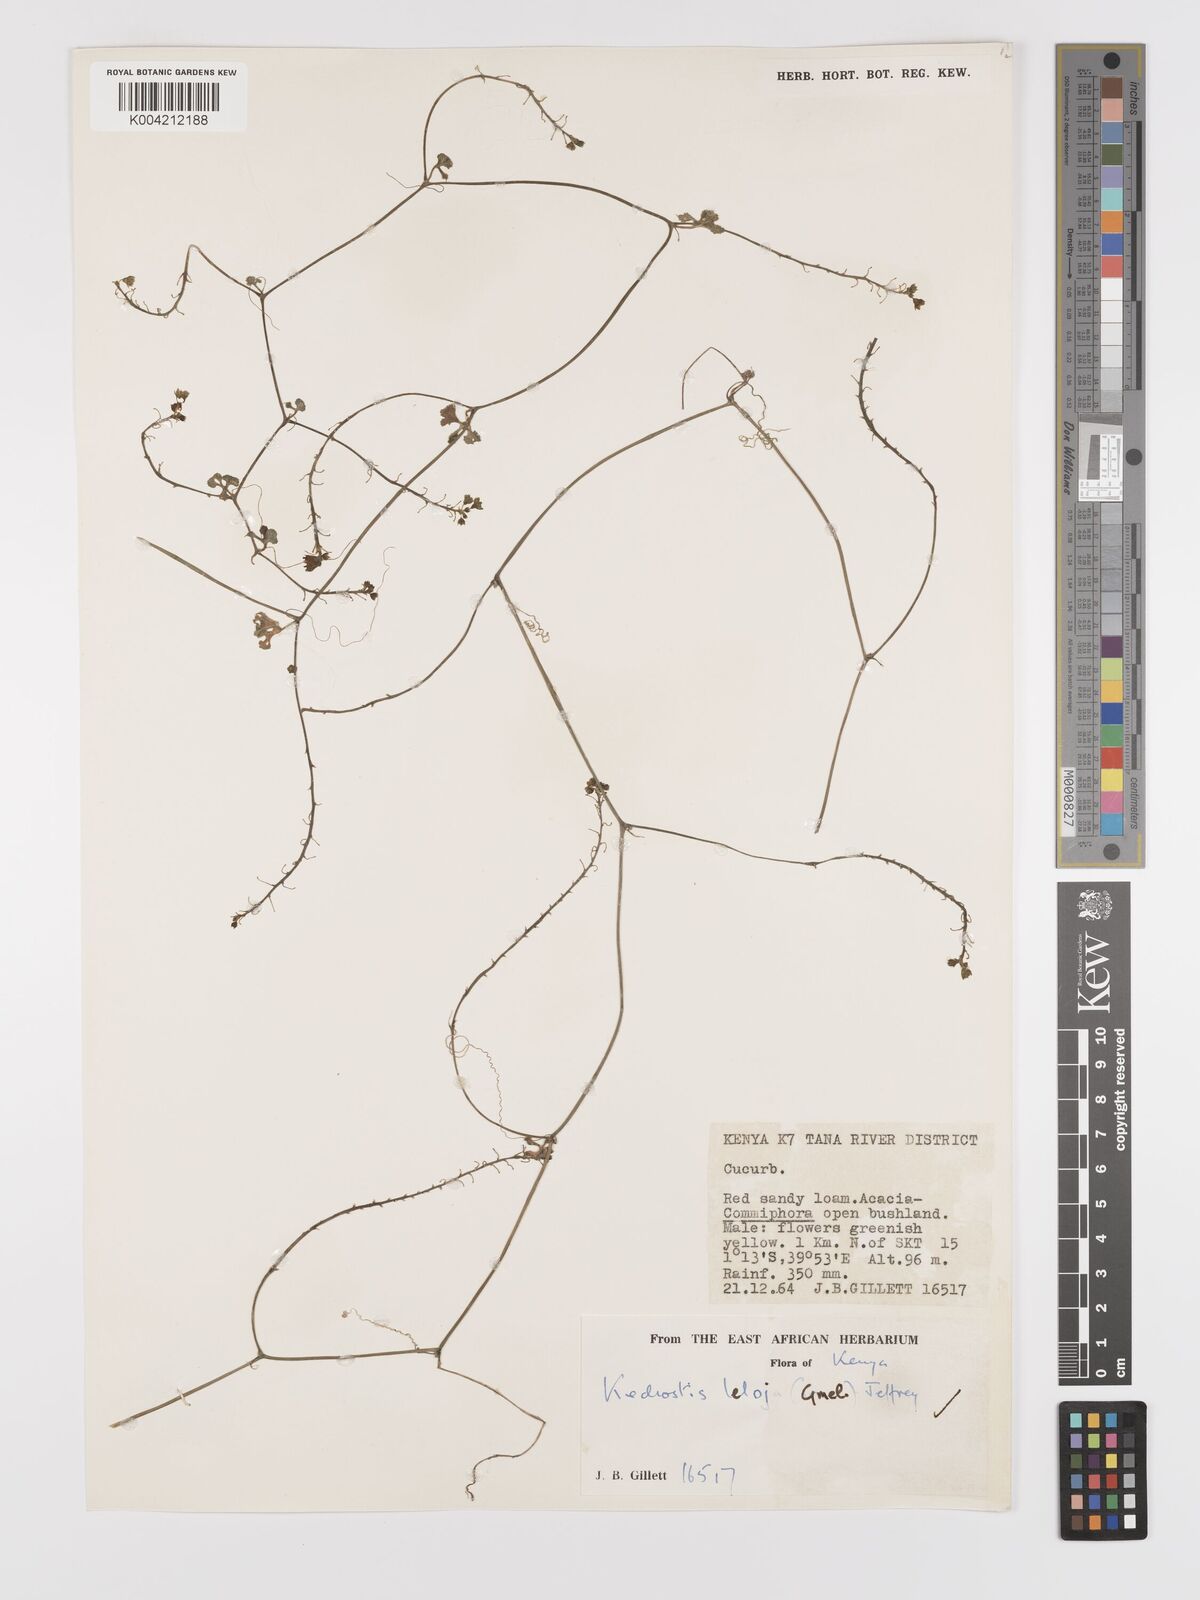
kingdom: Plantae
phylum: Tracheophyta
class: Magnoliopsida
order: Cucurbitales
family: Cucurbitaceae
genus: Kedrostis
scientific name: Kedrostis abdallae
